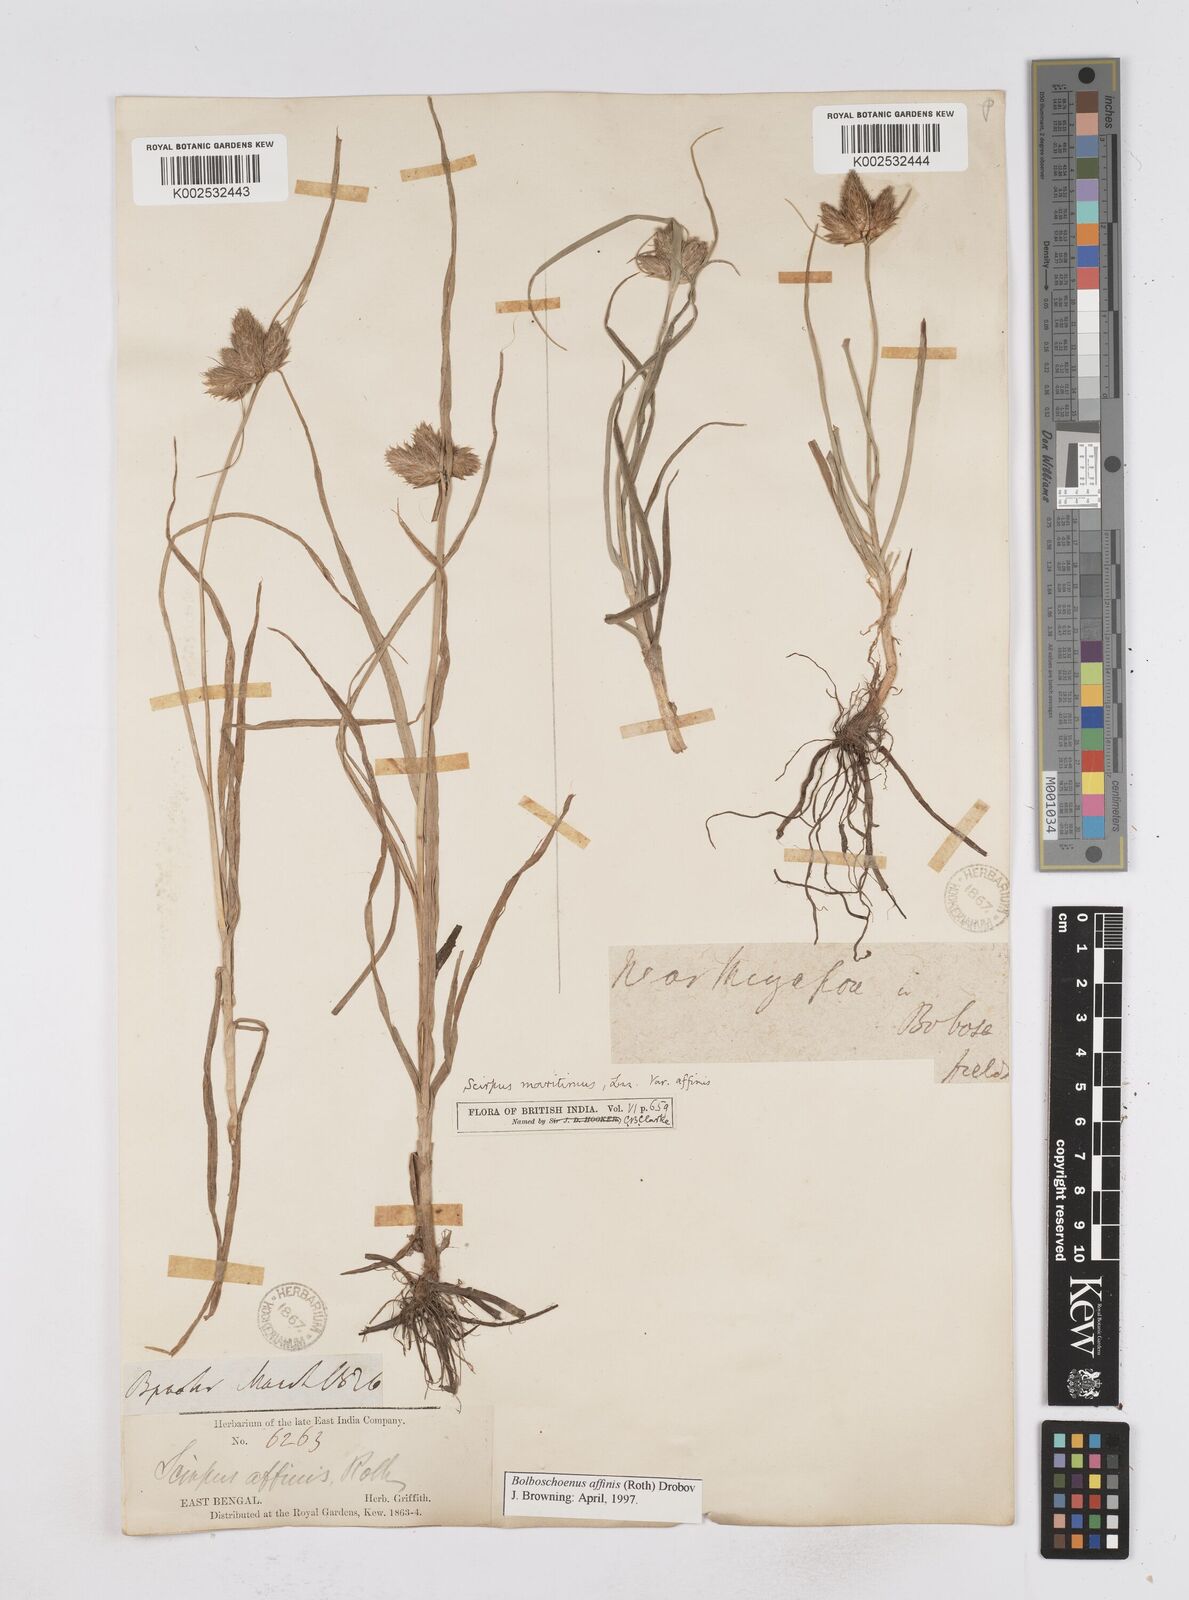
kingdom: Plantae
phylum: Tracheophyta
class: Liliopsida
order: Poales
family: Cyperaceae
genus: Bolboschoenus
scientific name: Bolboschoenus maritimus
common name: Sea club-rush
